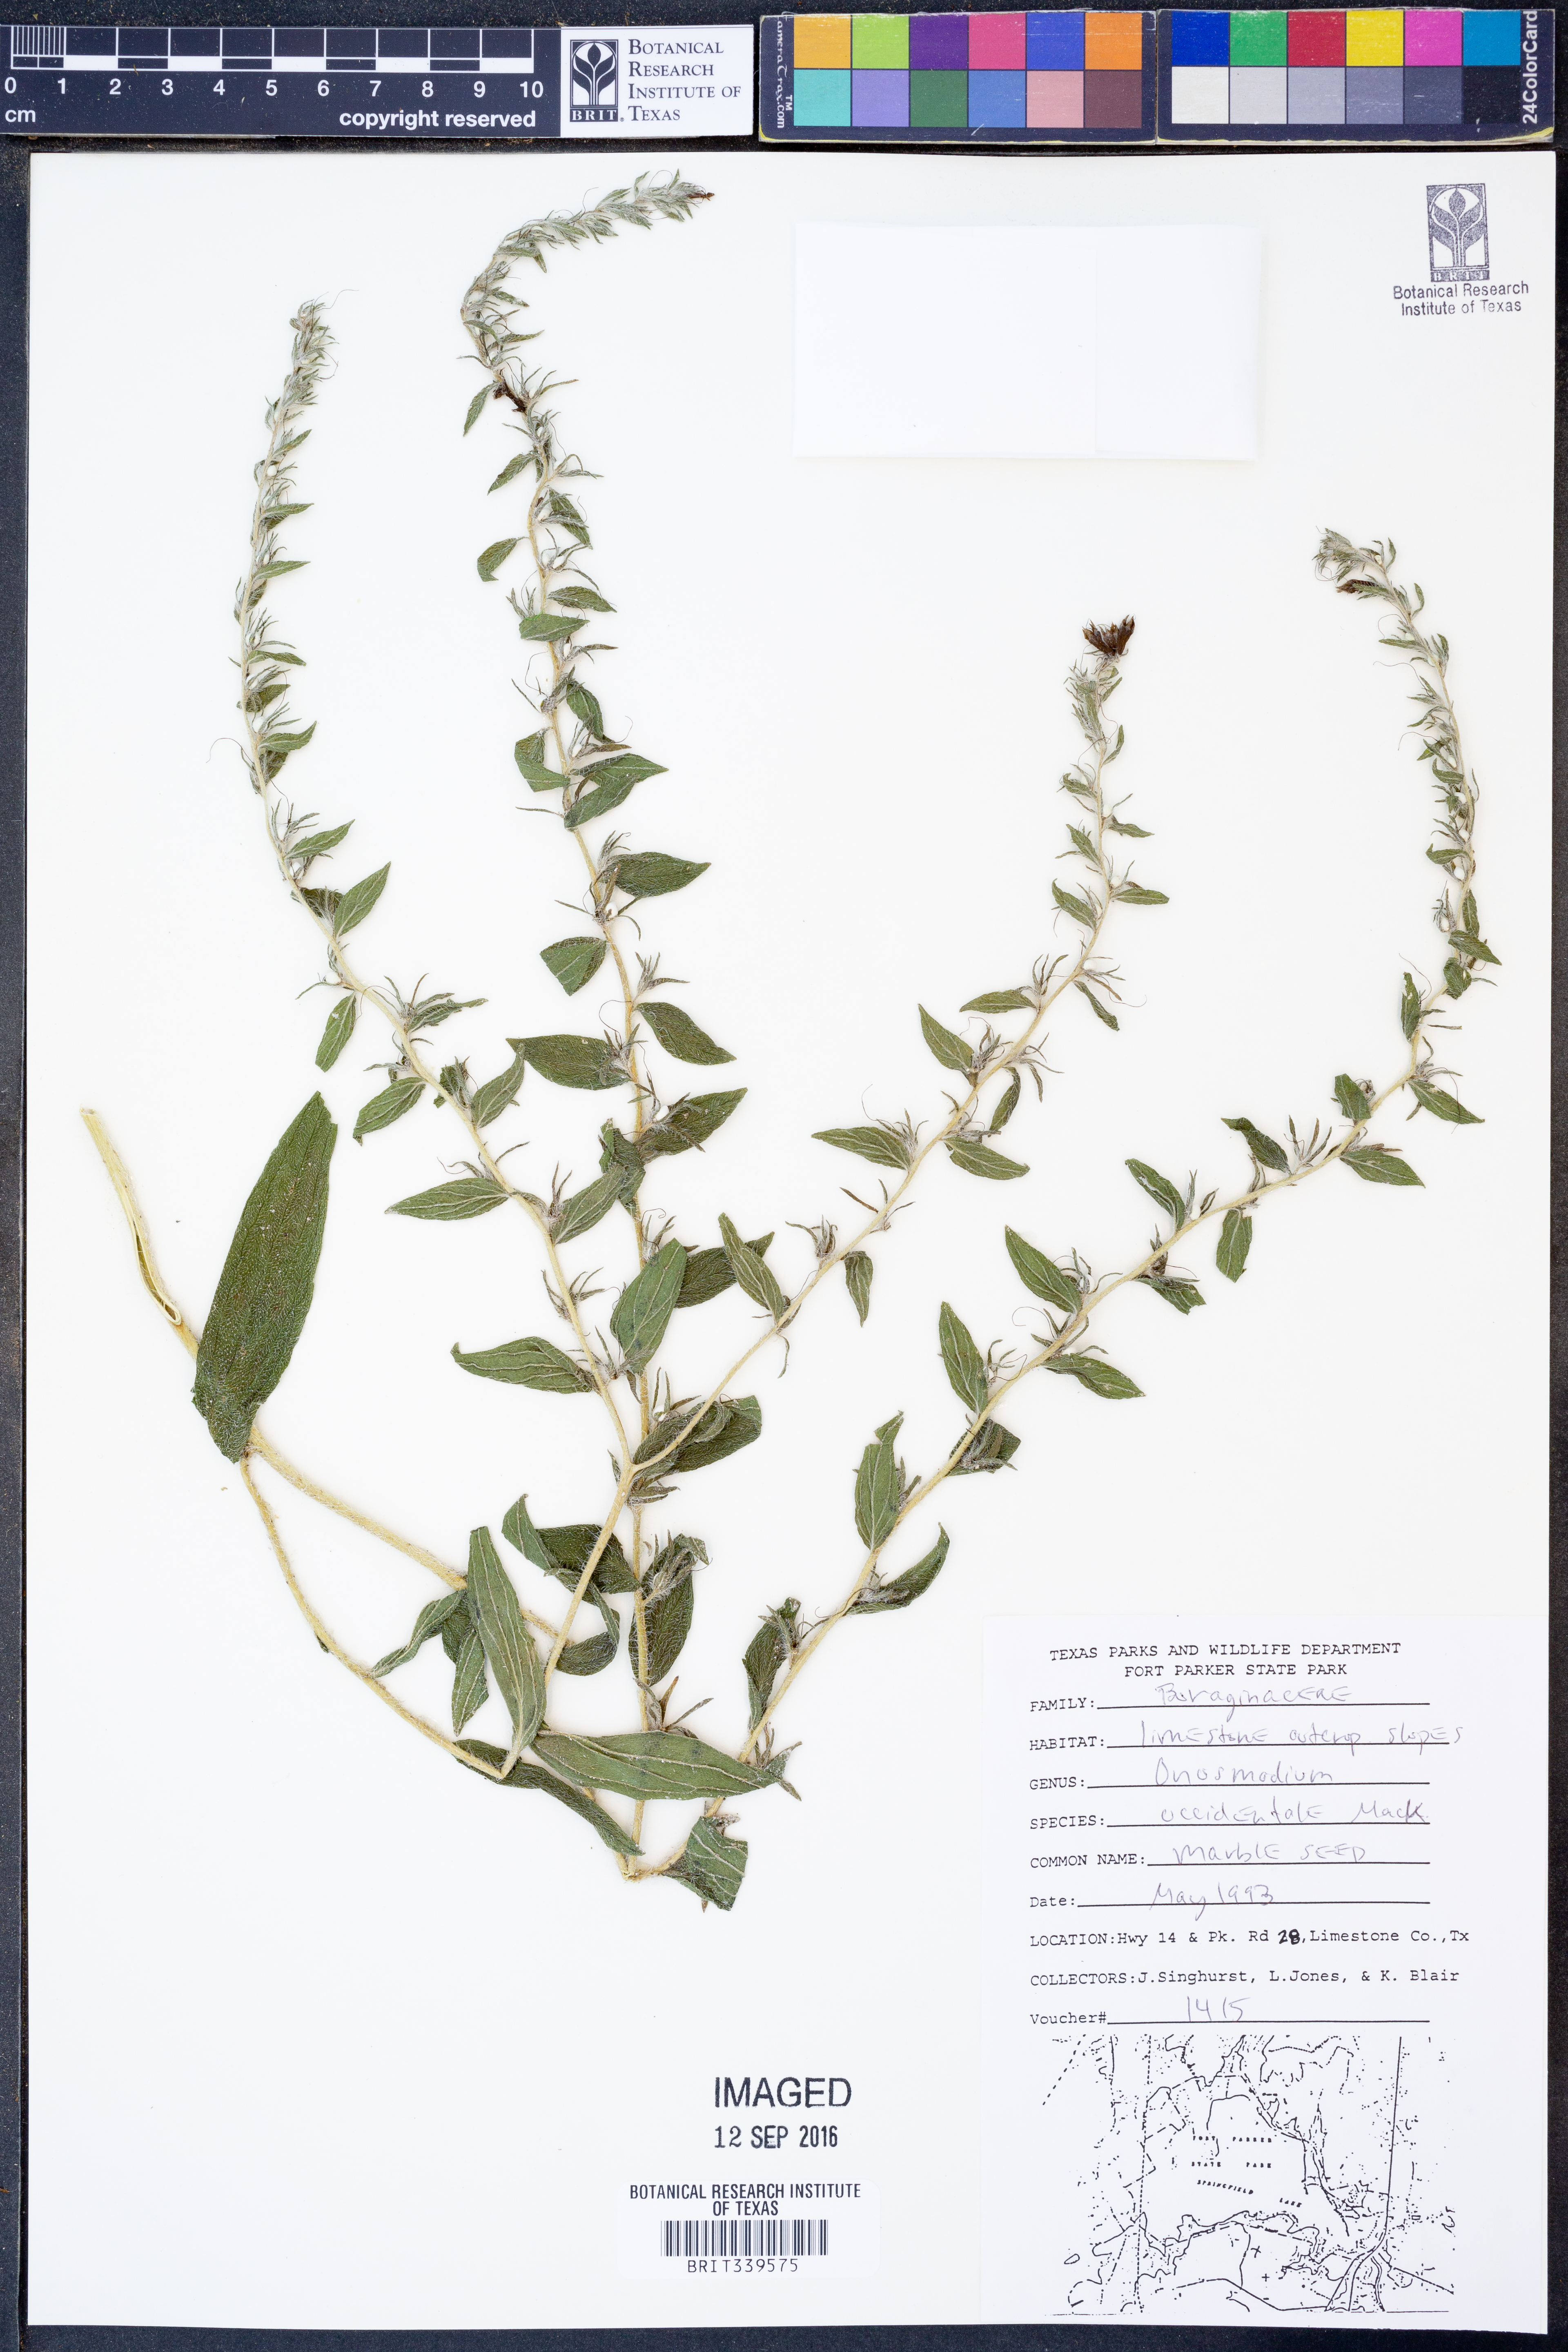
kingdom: Plantae
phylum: Tracheophyta
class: Magnoliopsida
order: Boraginales
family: Boraginaceae
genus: Lithospermum
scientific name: Lithospermum occidentale
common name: Western false gromwell
